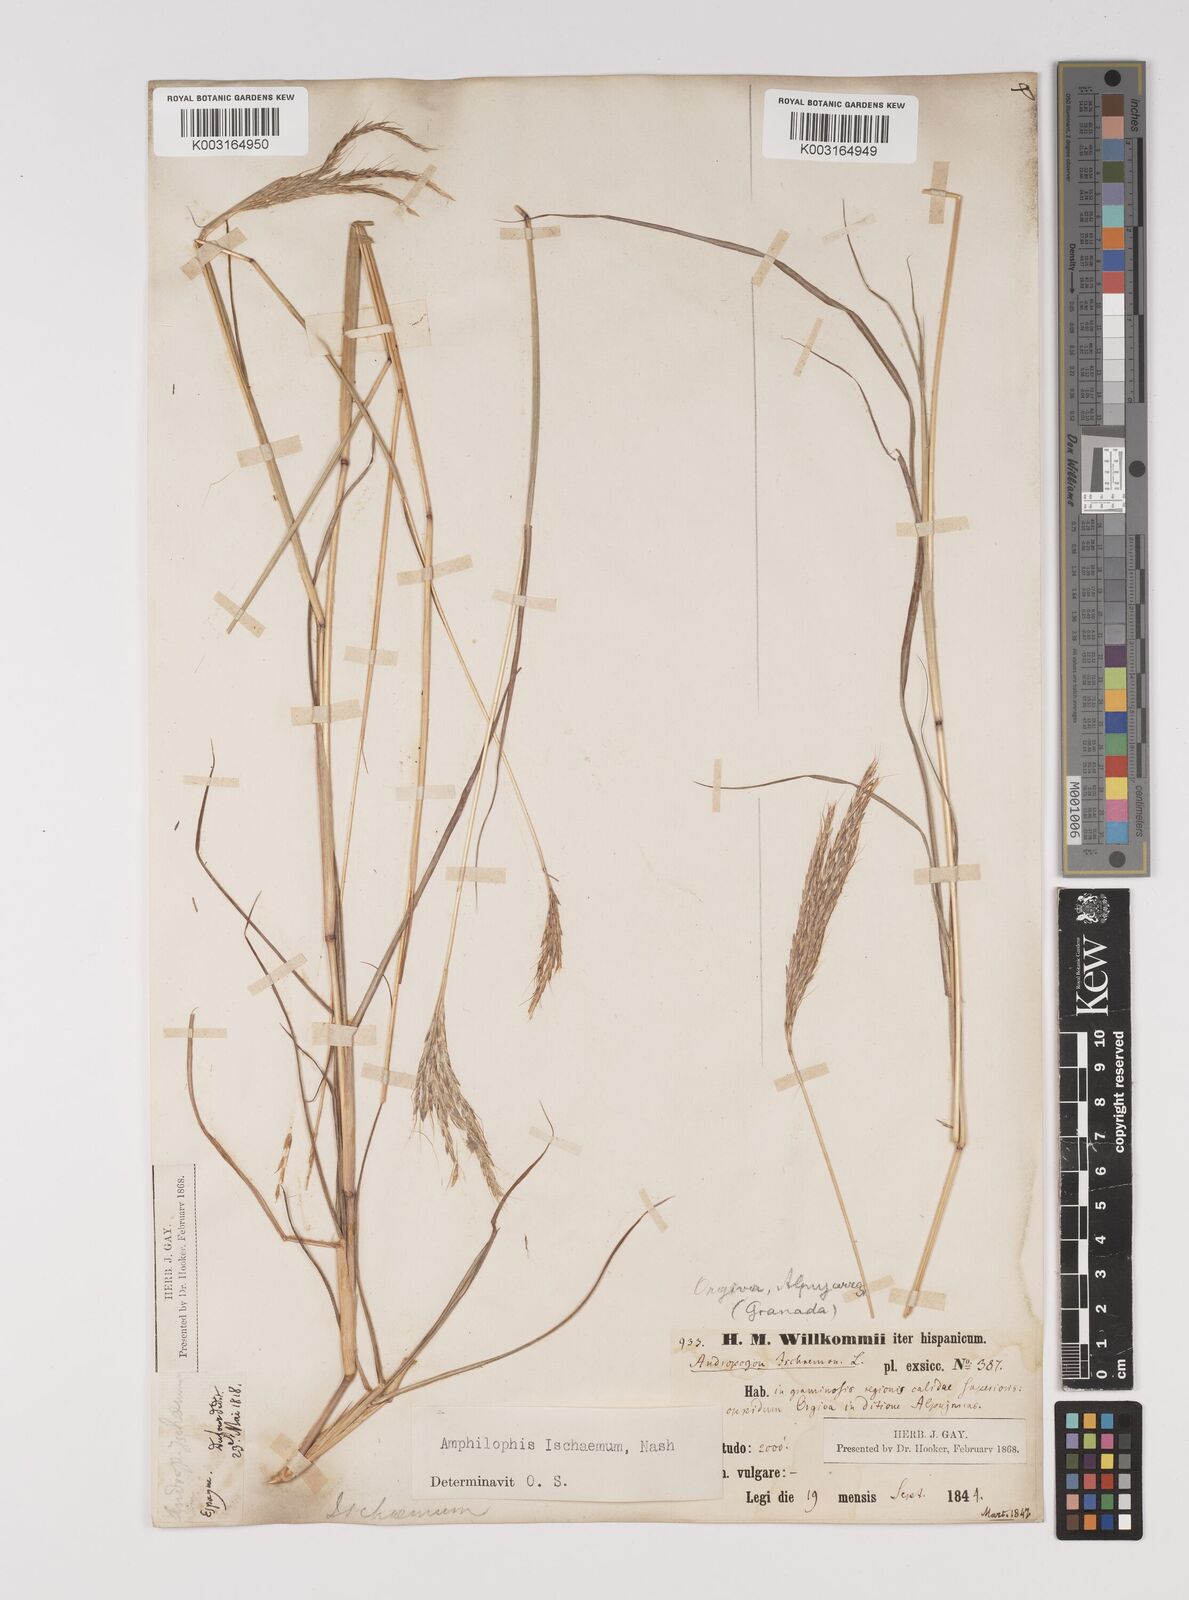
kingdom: Plantae
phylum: Tracheophyta
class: Liliopsida
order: Poales
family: Poaceae
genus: Bothriochloa
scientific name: Bothriochloa ischaemum
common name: Yellow bluestem
